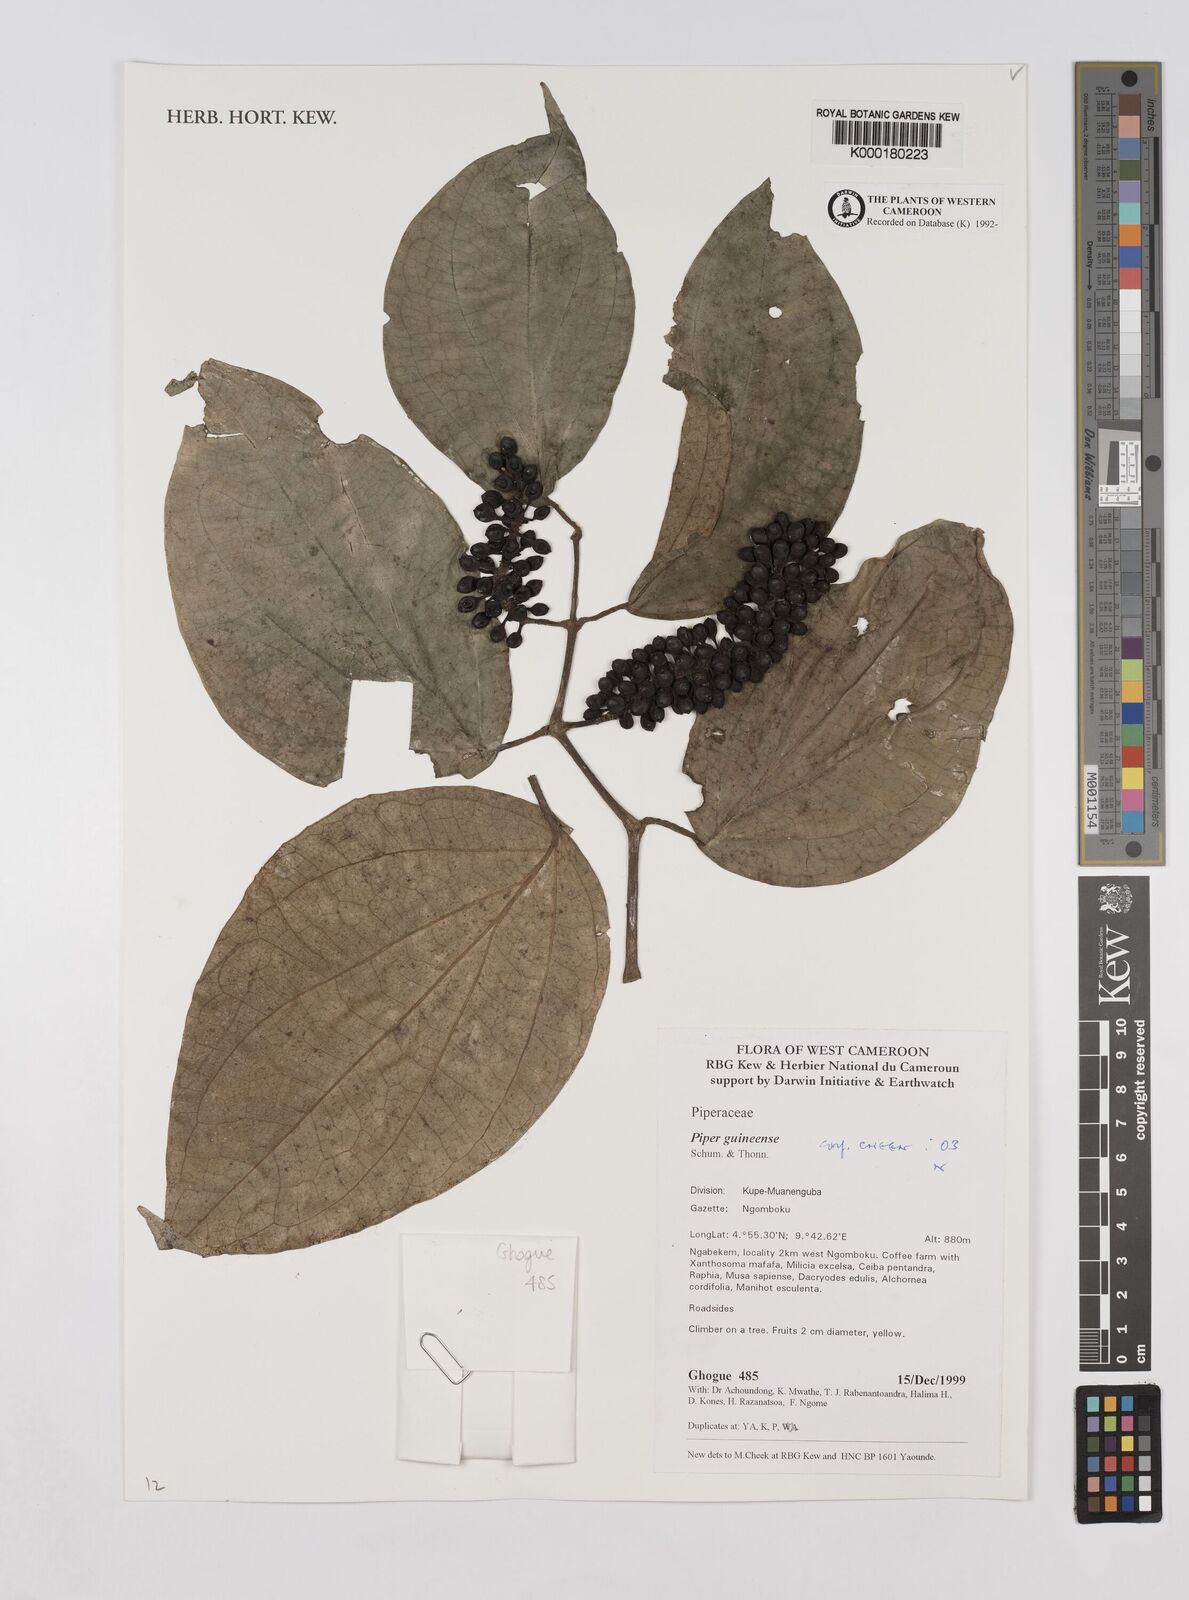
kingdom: Plantae
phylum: Tracheophyta
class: Magnoliopsida
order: Piperales
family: Piperaceae
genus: Piper
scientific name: Piper guineense
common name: Benin pepper
